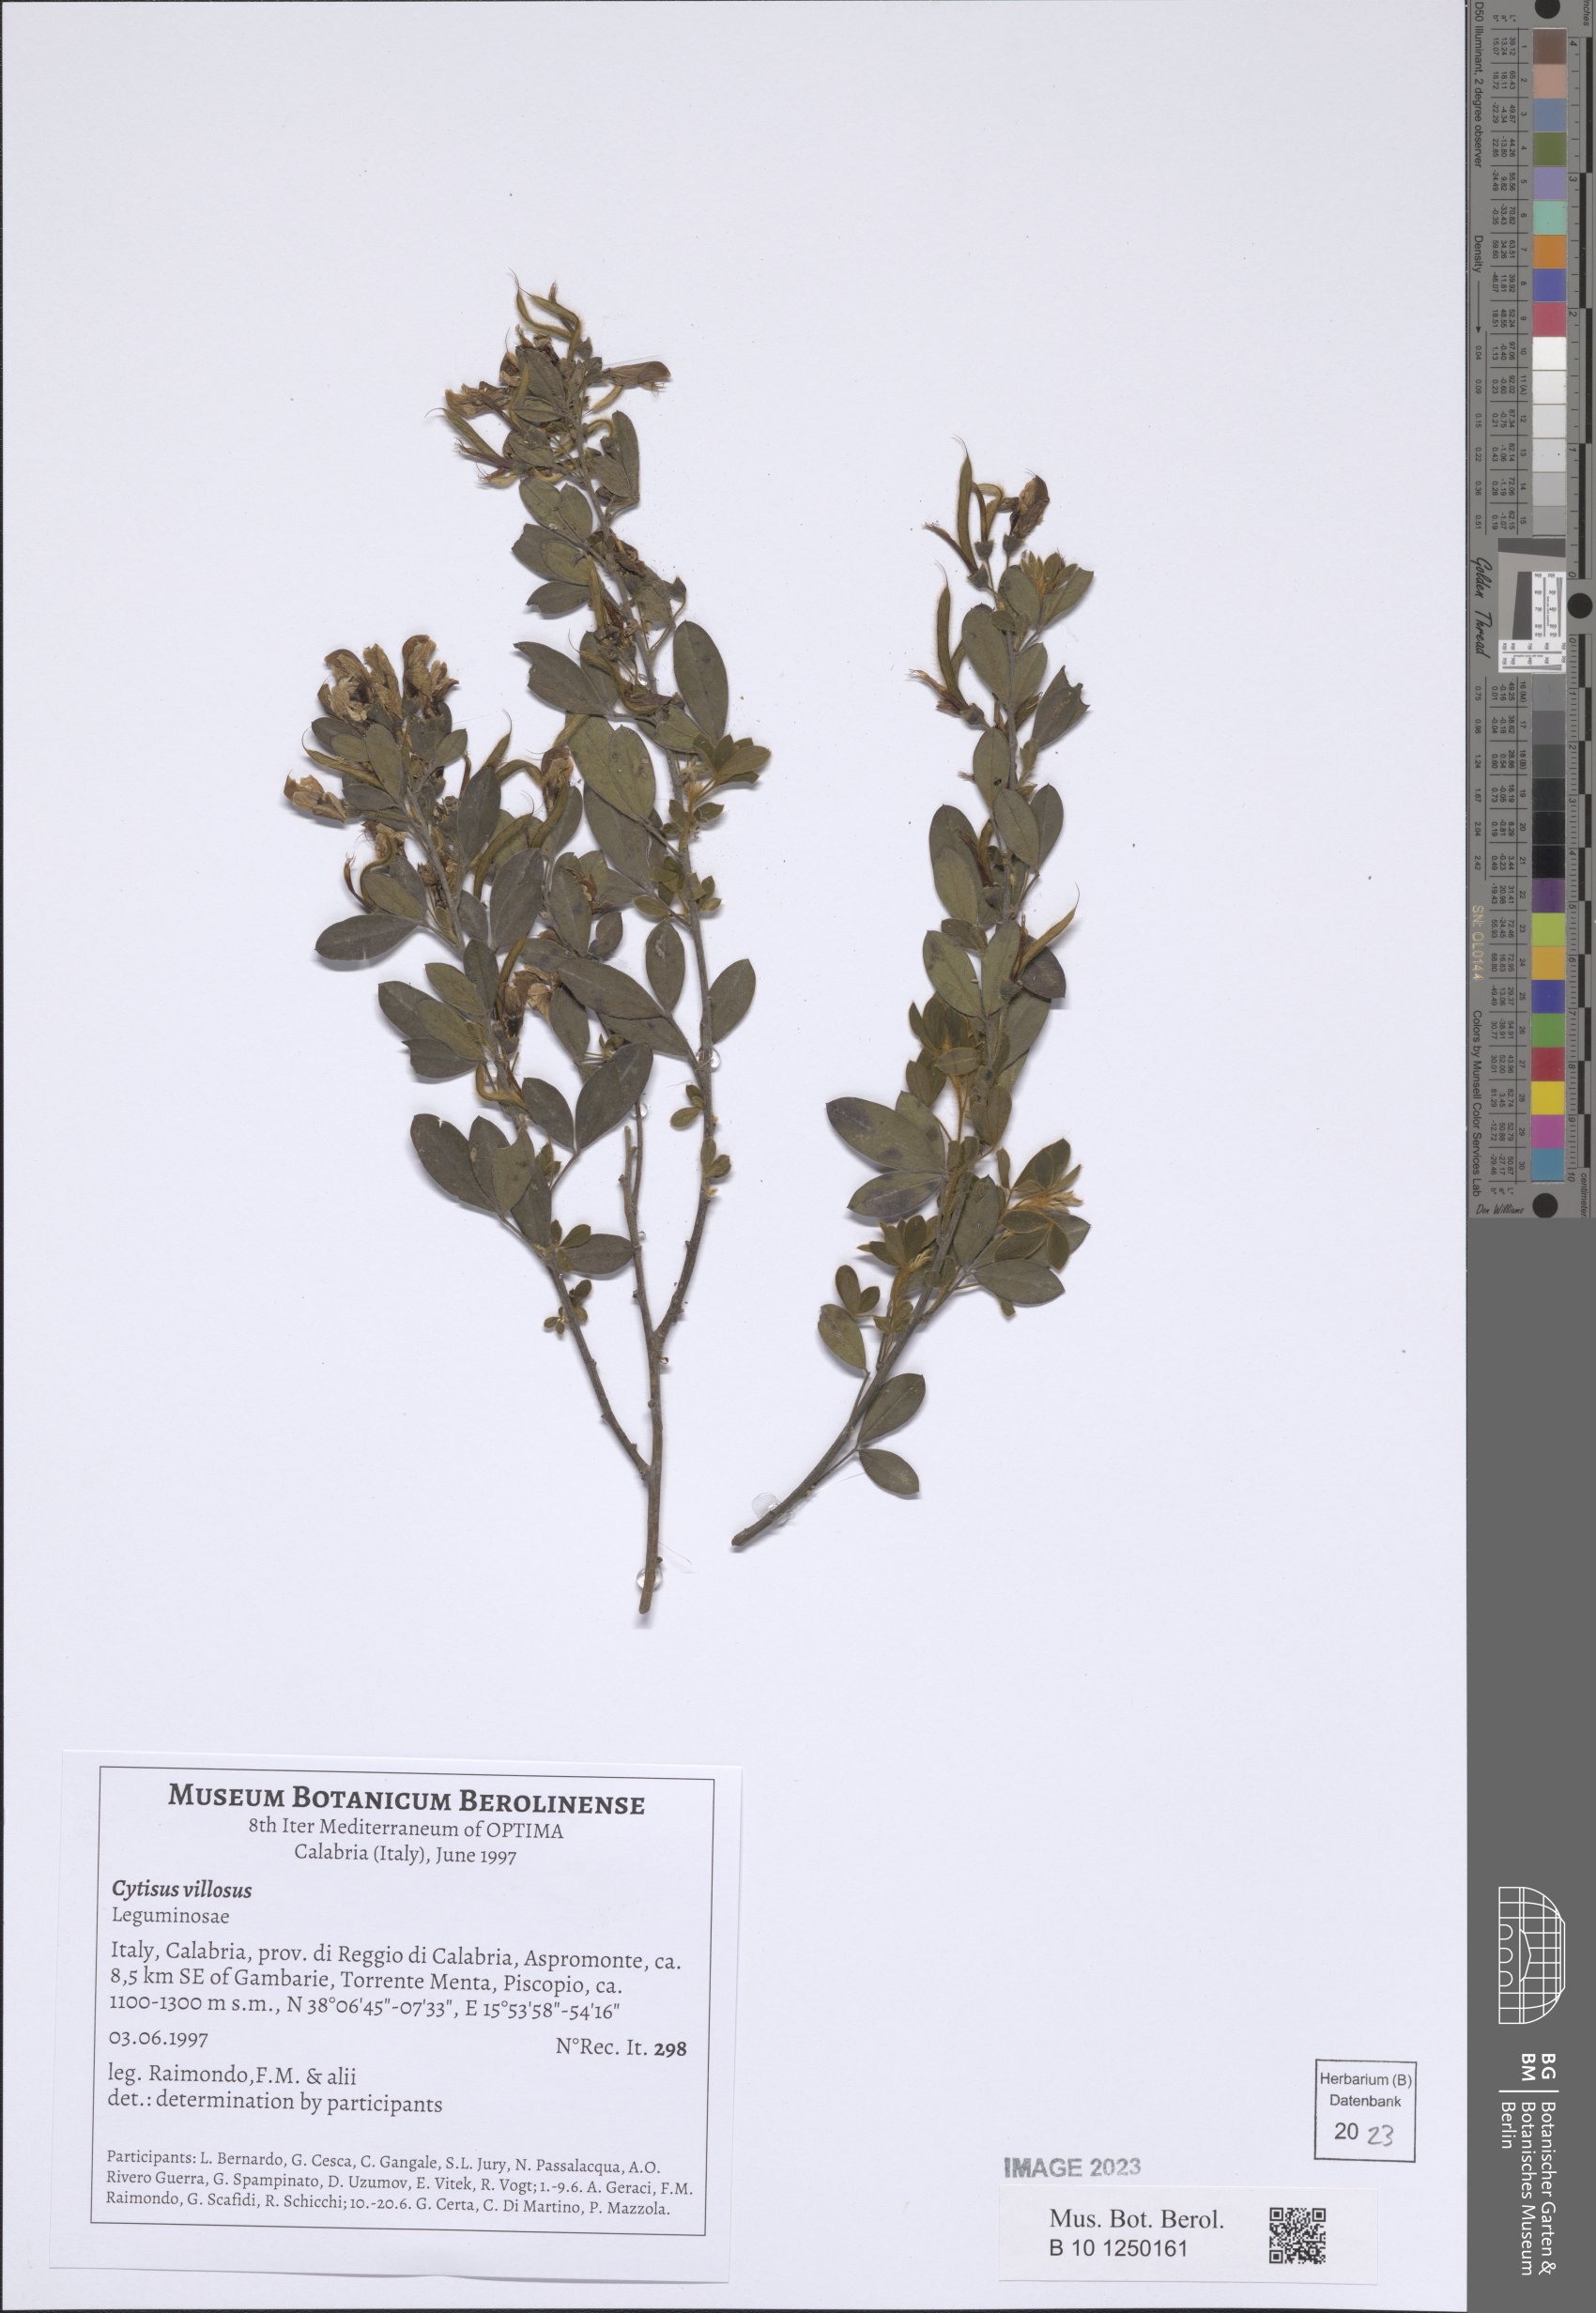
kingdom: Plantae
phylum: Tracheophyta
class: Magnoliopsida
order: Fabales
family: Fabaceae
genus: Cytisus
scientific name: Cytisus villosus
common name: Hairybroom
